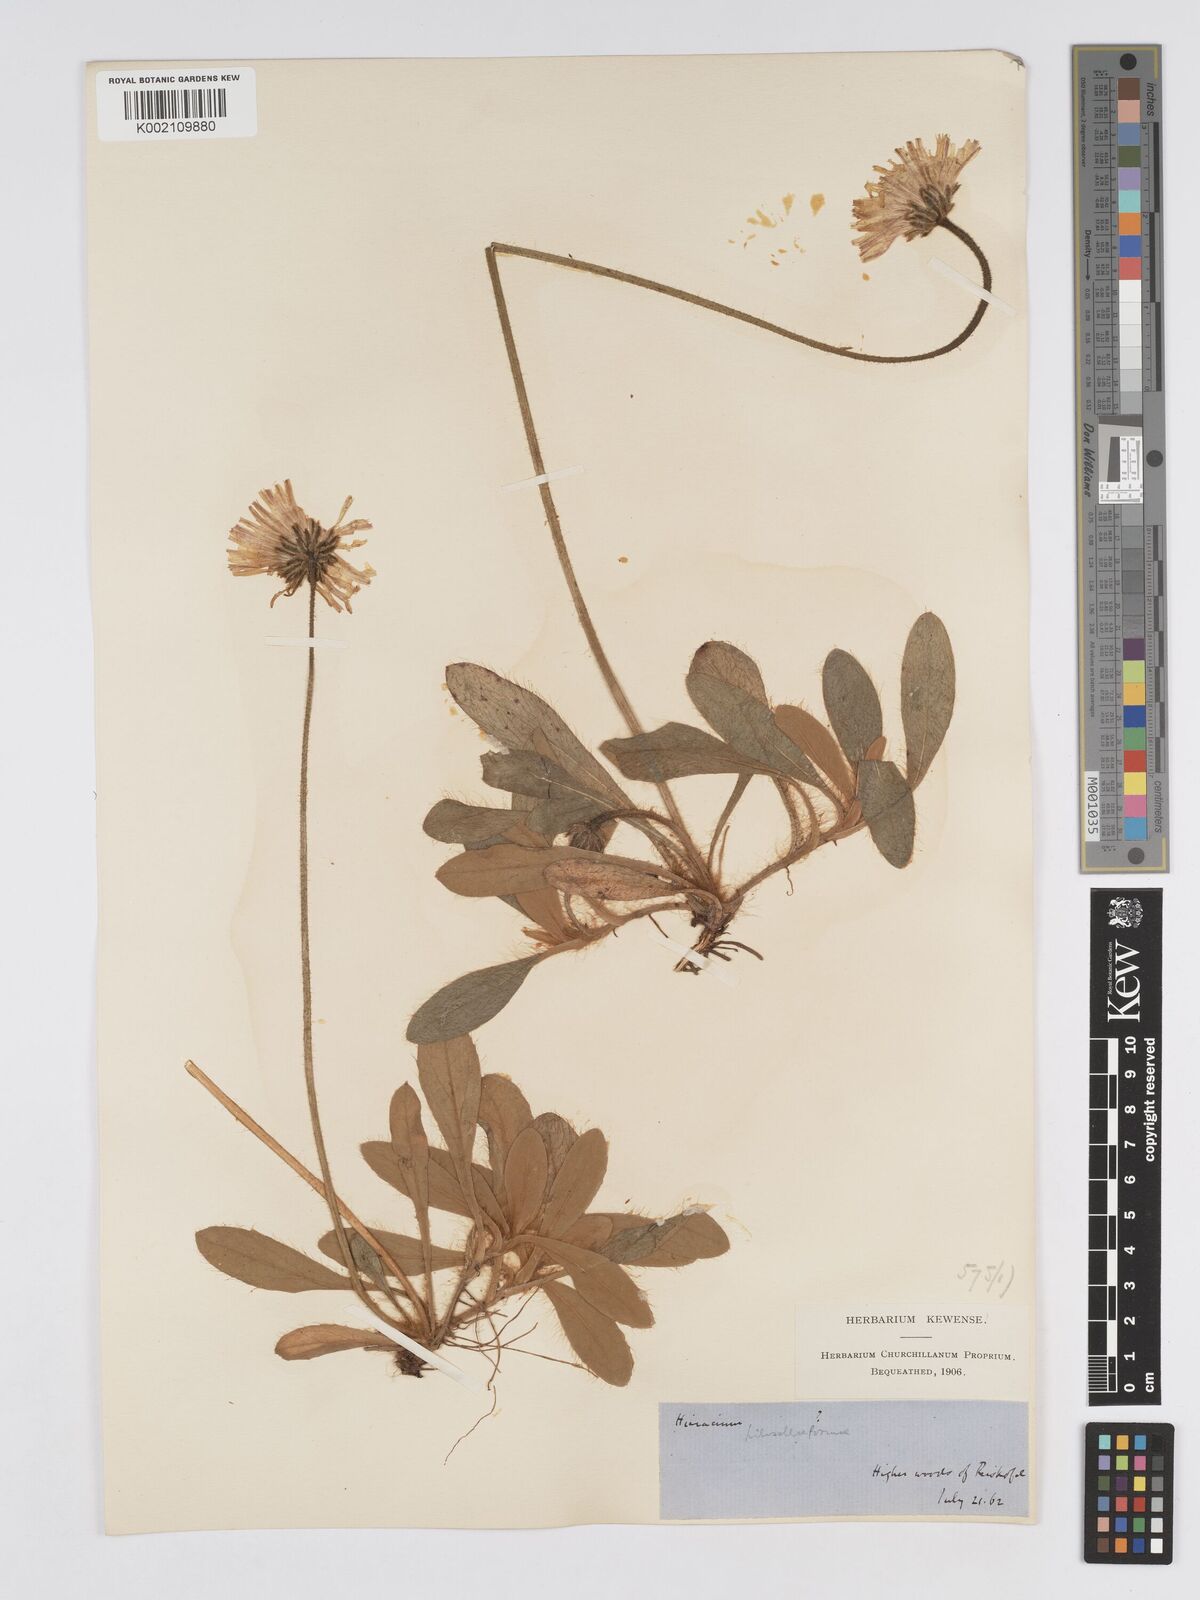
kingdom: Plantae
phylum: Tracheophyta
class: Magnoliopsida
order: Asterales
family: Asteraceae
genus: Pilosella
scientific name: Pilosella hoppeana
